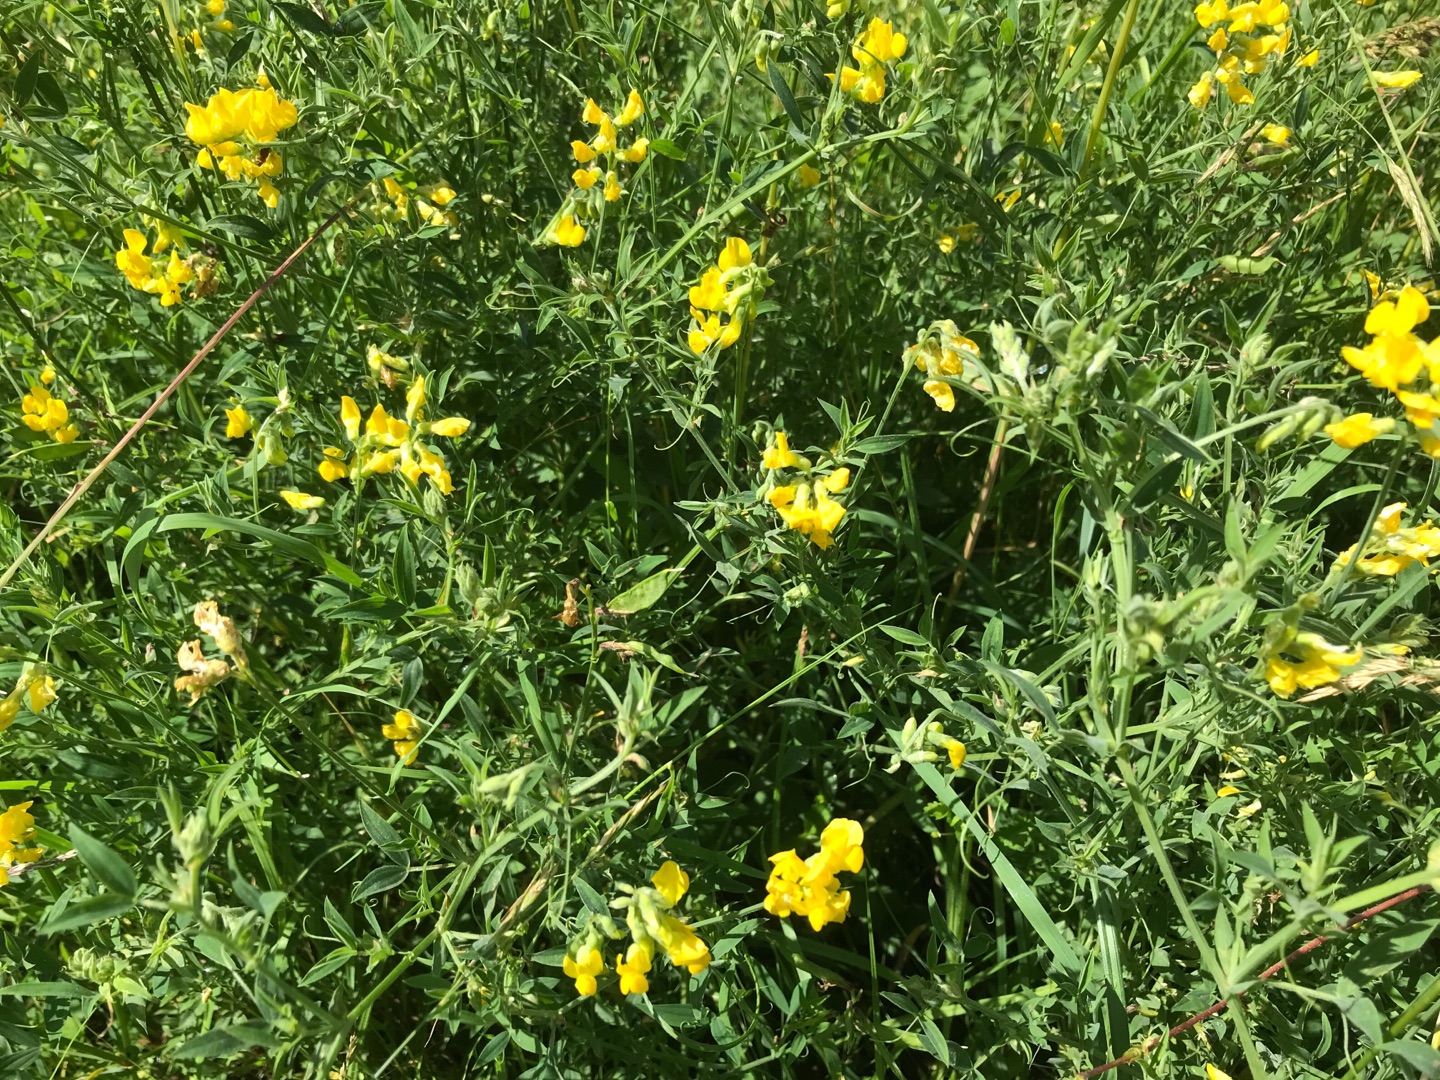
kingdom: Plantae
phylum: Tracheophyta
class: Magnoliopsida
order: Fabales
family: Fabaceae
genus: Lathyrus
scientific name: Lathyrus pratensis
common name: Gul fladbælg
